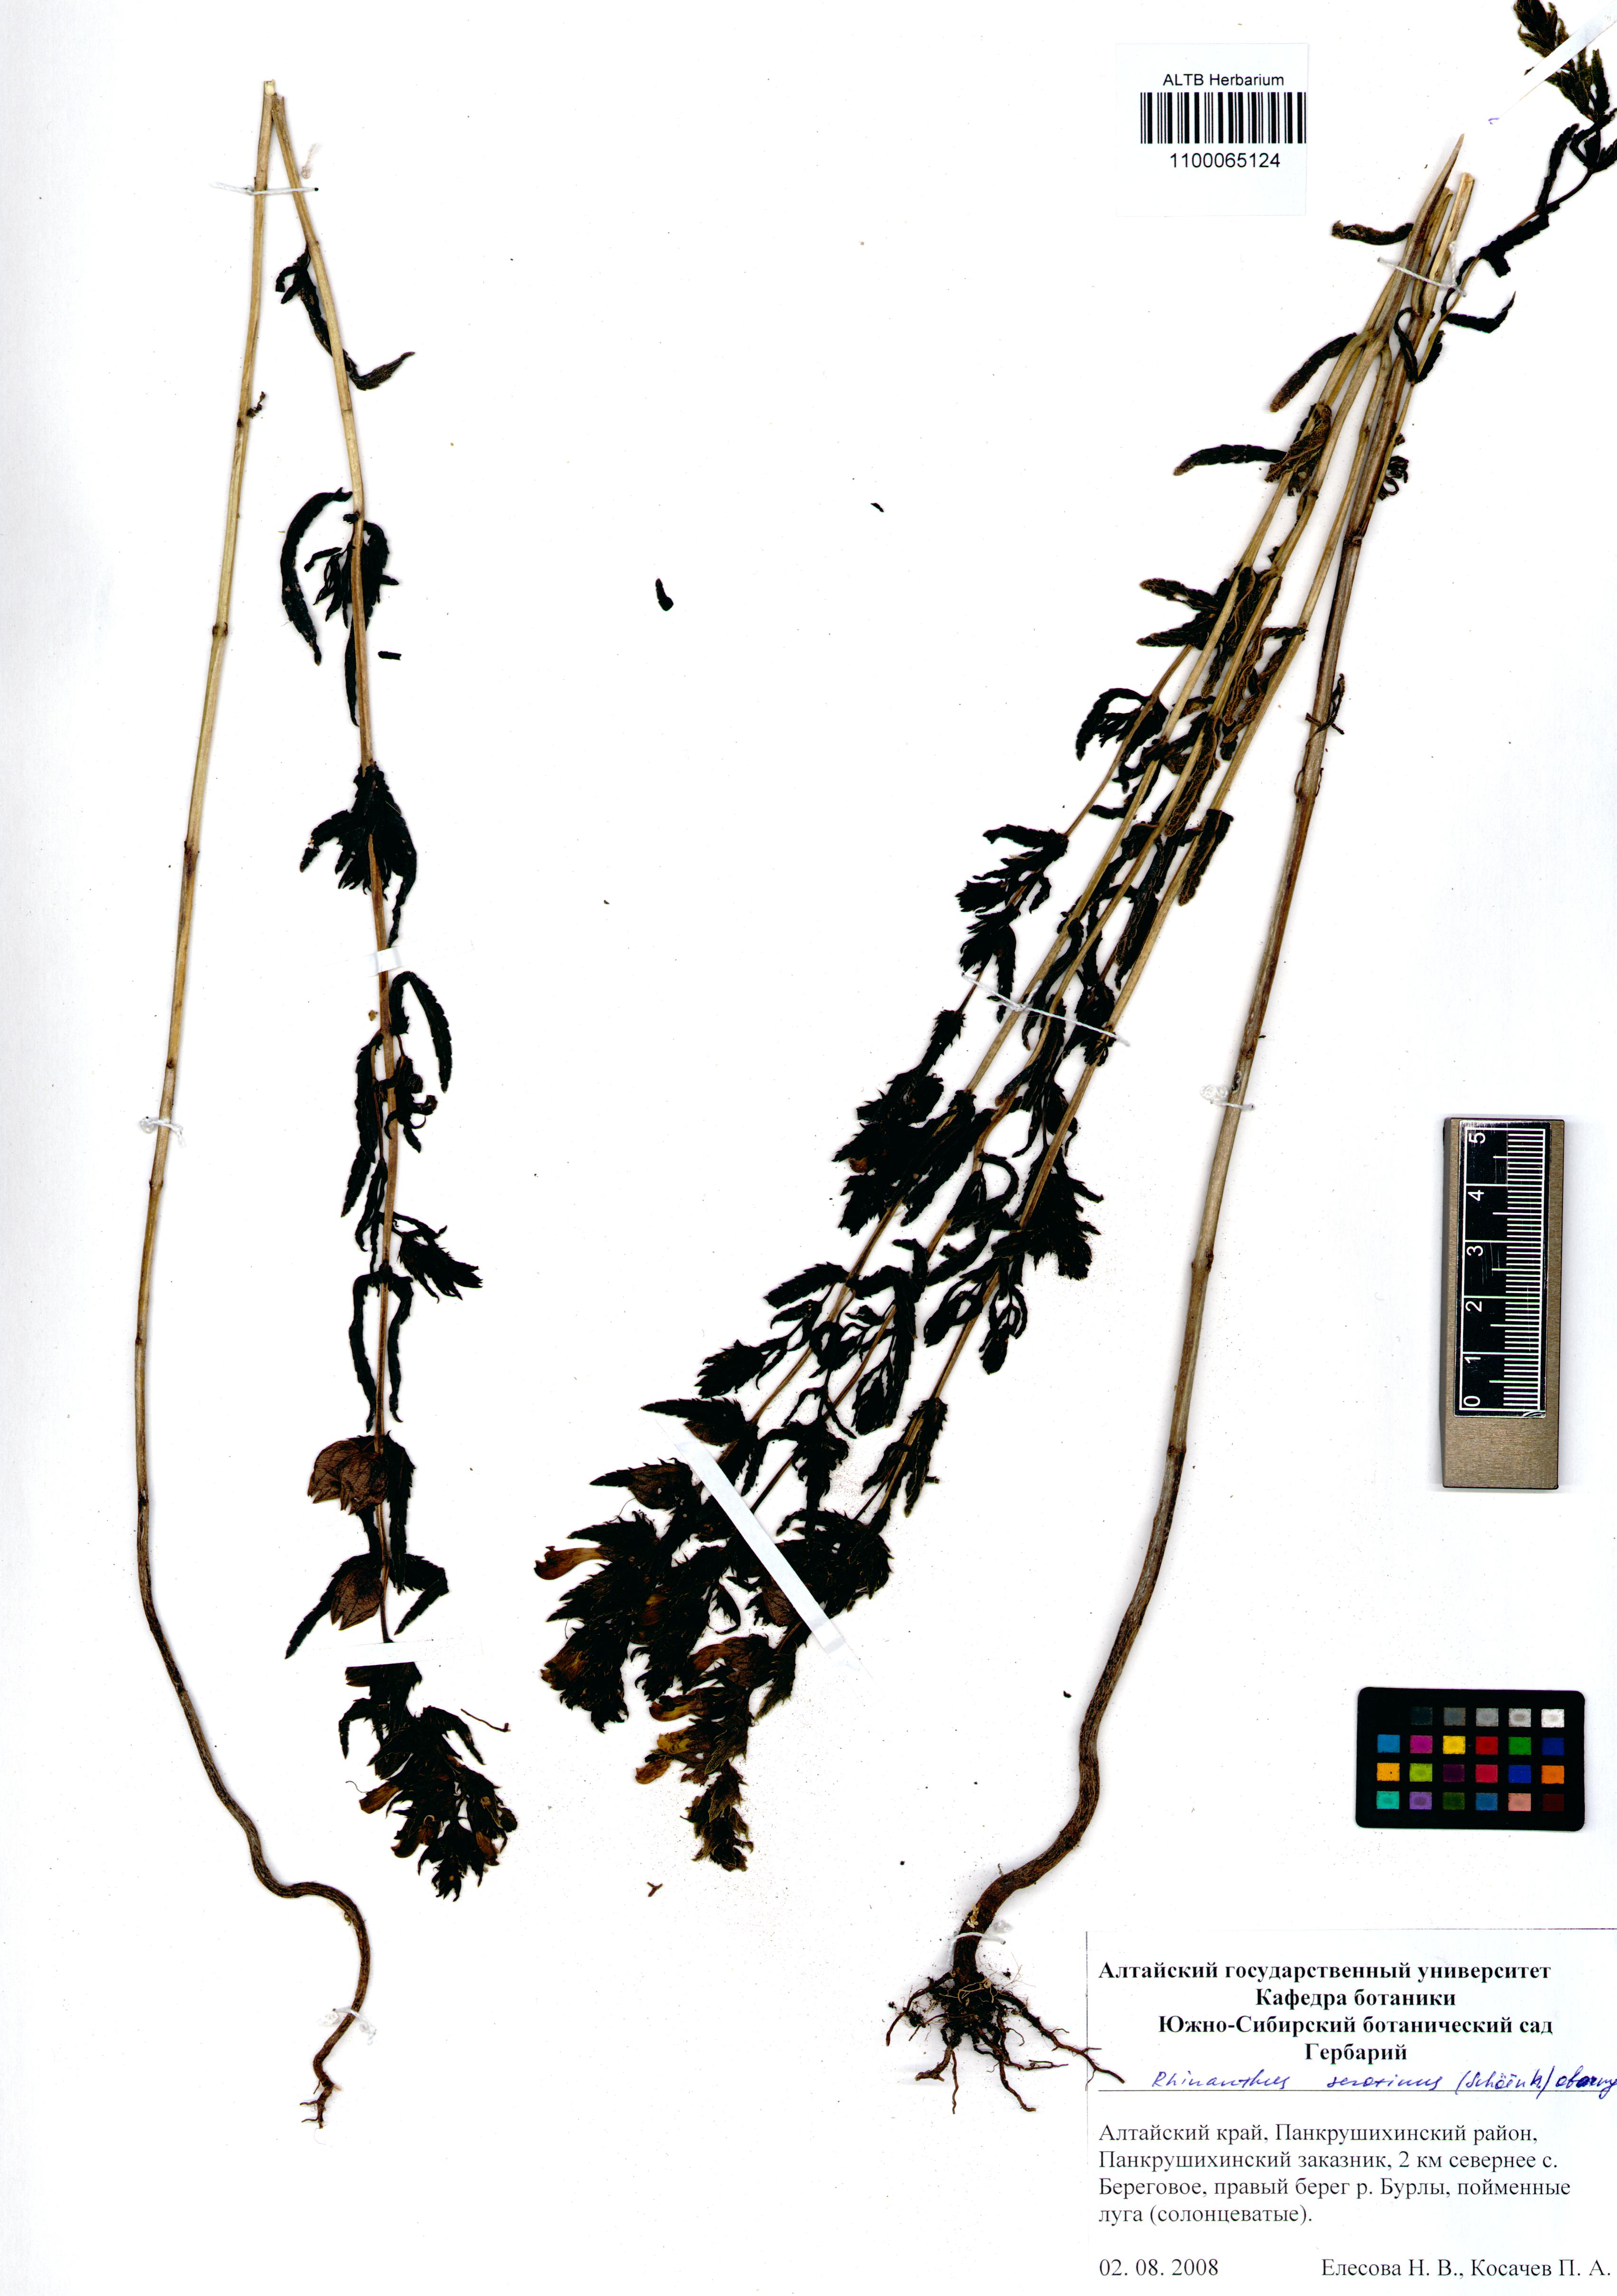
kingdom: Plantae
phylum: Tracheophyta
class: Magnoliopsida
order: Lamiales
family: Orobanchaceae
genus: Rhinanthus
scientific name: Rhinanthus serotinus
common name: Late-flowering yellow rattle
